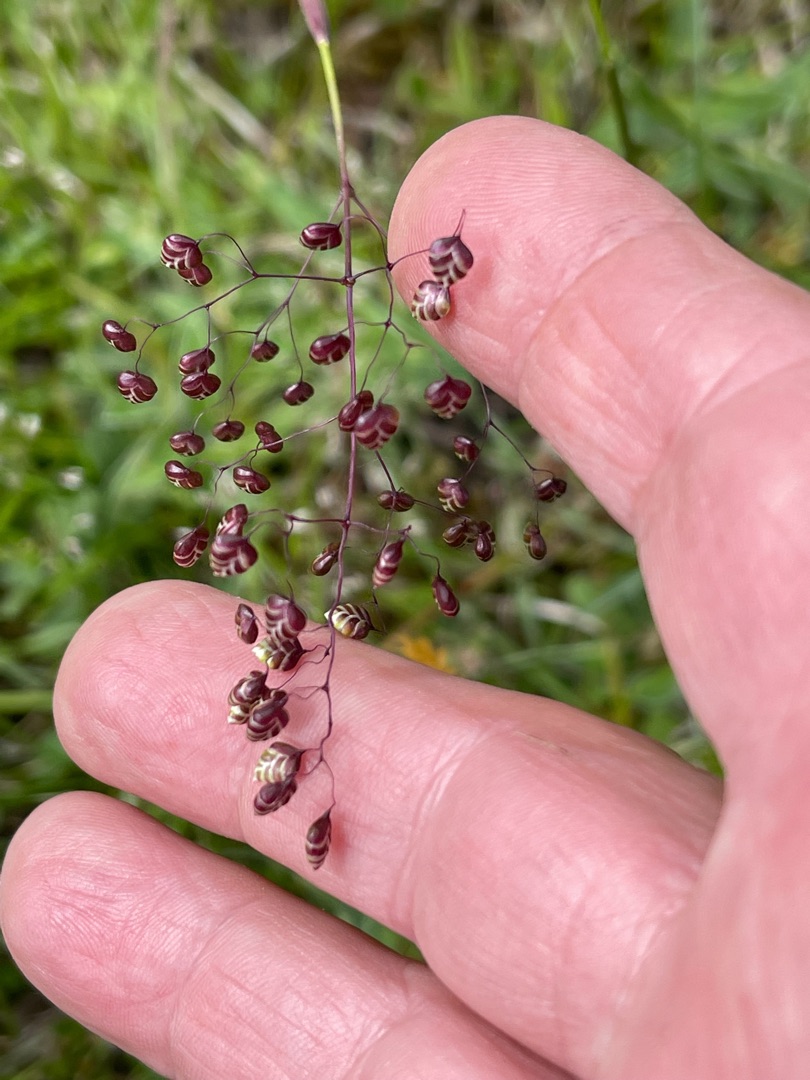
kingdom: Plantae
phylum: Tracheophyta
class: Liliopsida
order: Poales
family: Poaceae
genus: Briza
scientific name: Briza media
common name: Hjertegræs
